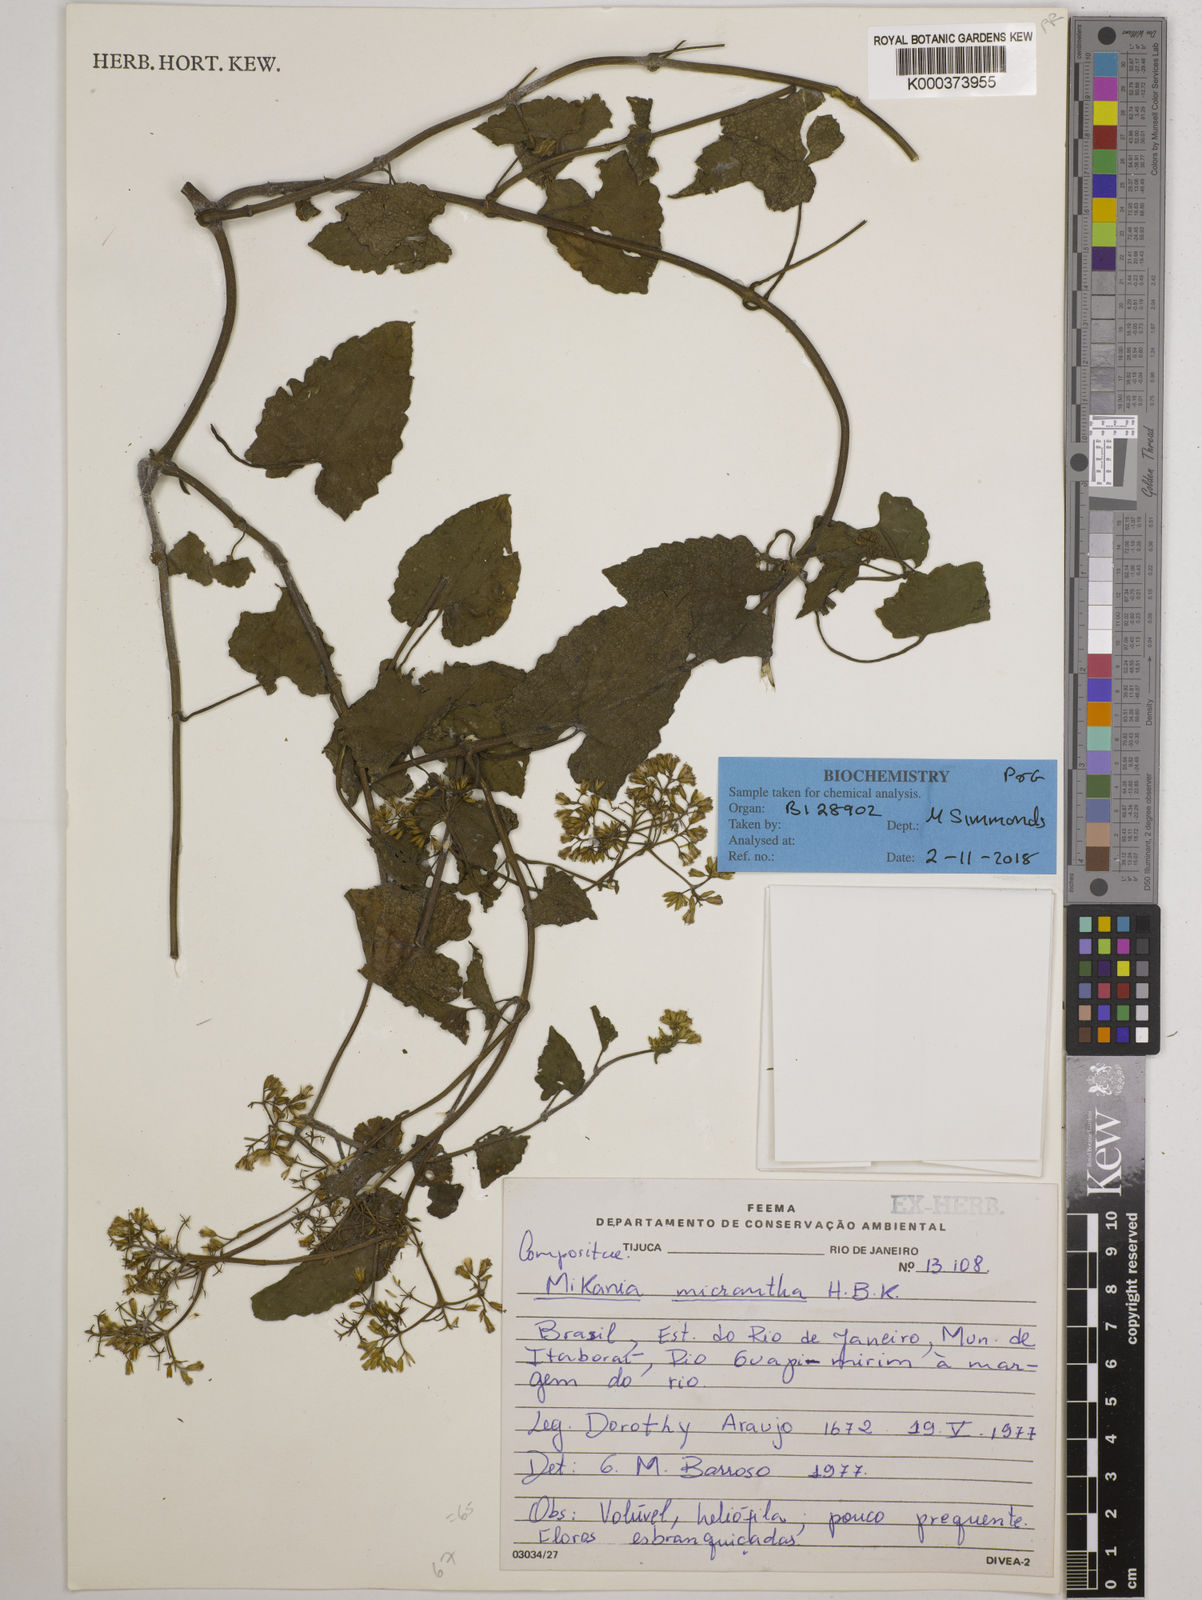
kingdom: Plantae
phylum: Tracheophyta
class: Magnoliopsida
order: Asterales
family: Asteraceae
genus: Mikania
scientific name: Mikania
